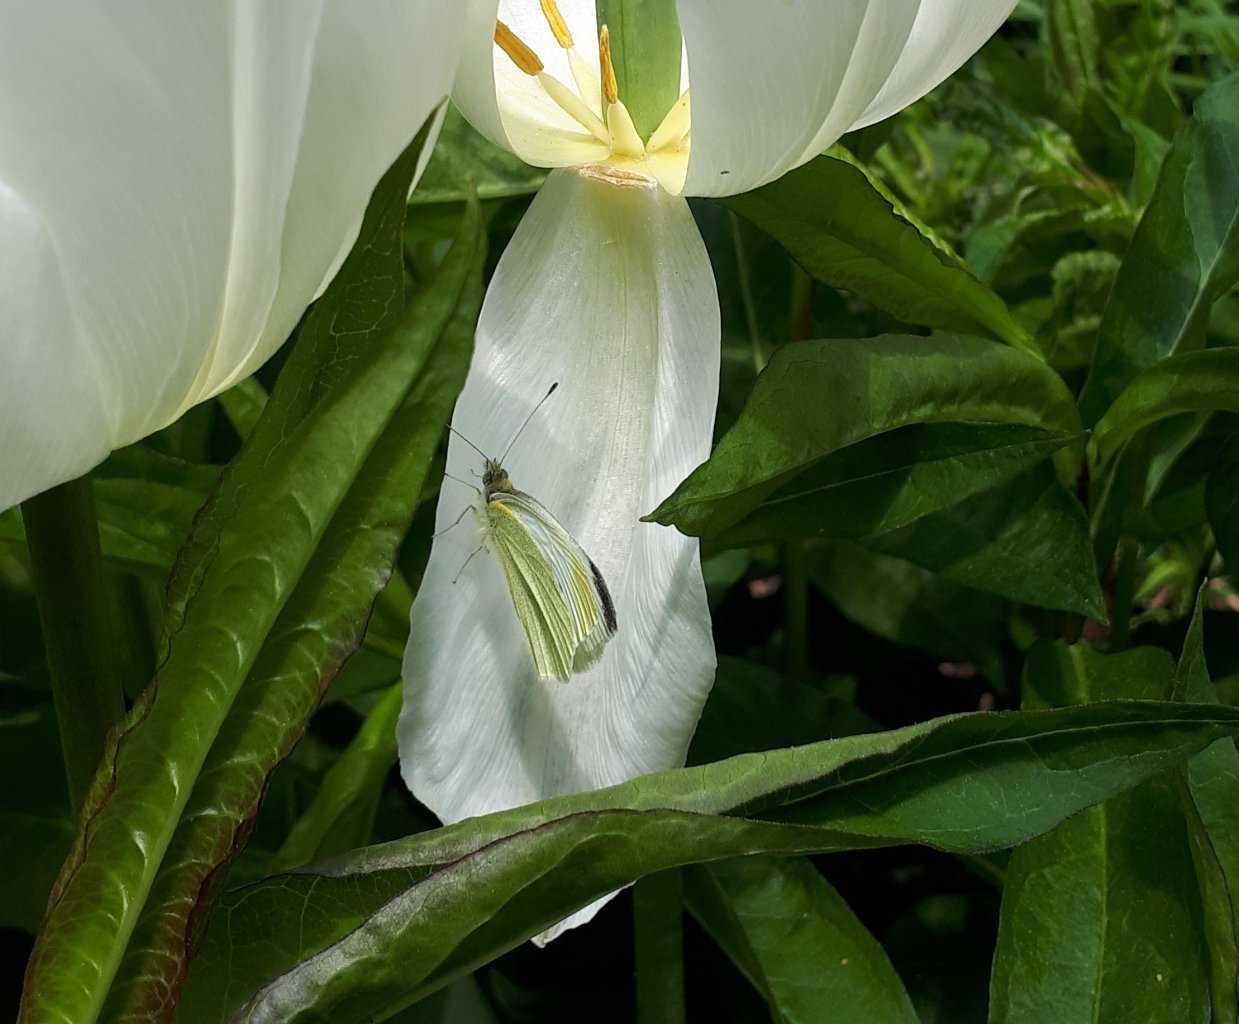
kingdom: Animalia
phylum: Arthropoda
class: Insecta
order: Lepidoptera
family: Pieridae
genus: Pieris
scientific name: Pieris rapae
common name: Cabbage White
